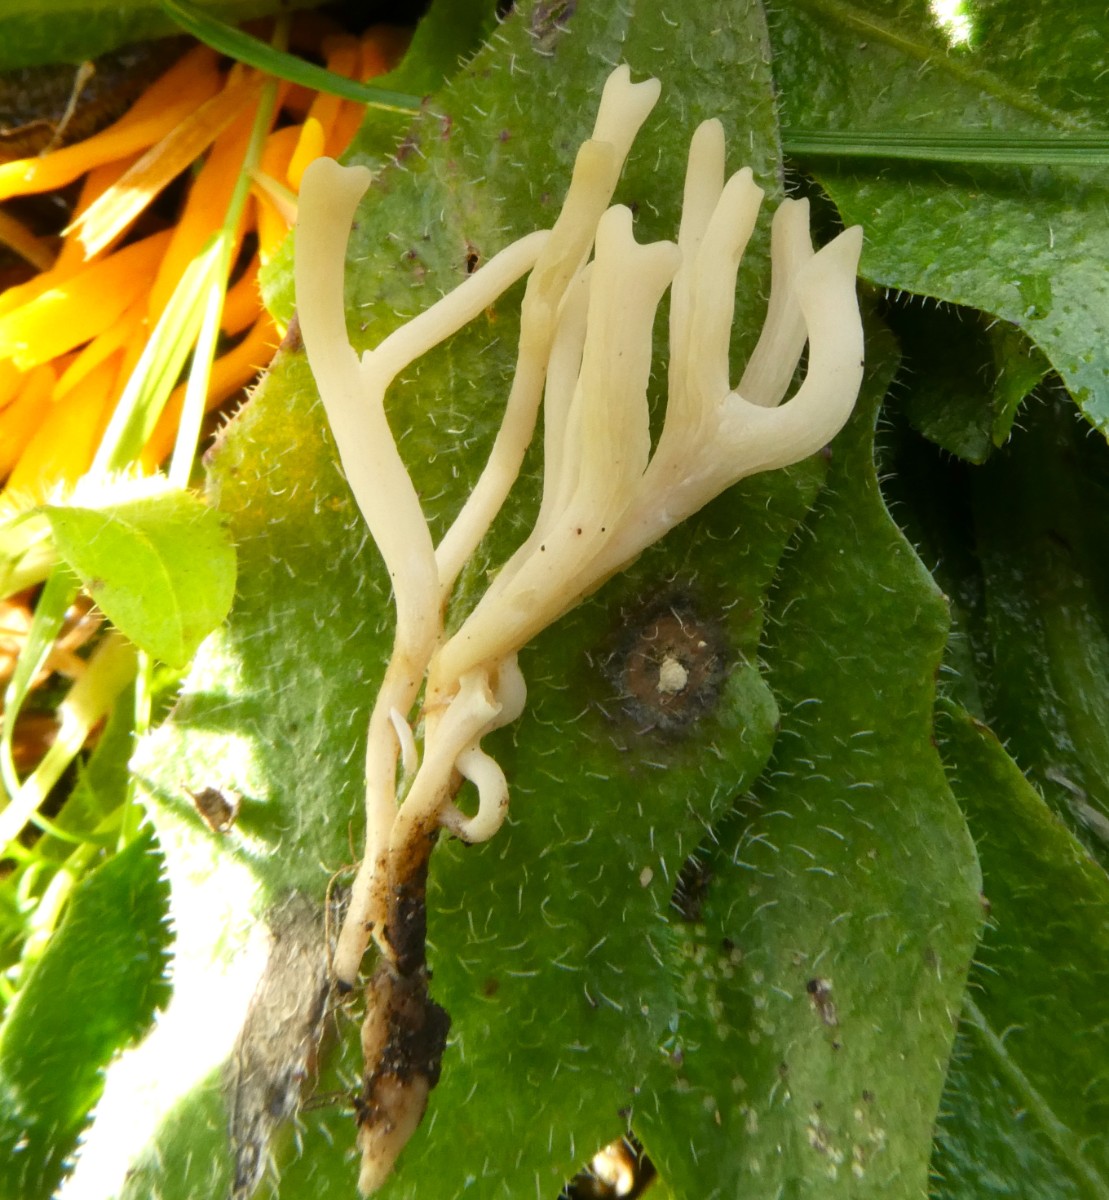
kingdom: Fungi
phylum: Basidiomycota
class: Agaricomycetes
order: Agaricales
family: Clavariaceae
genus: Ramariopsis
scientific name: Ramariopsis
